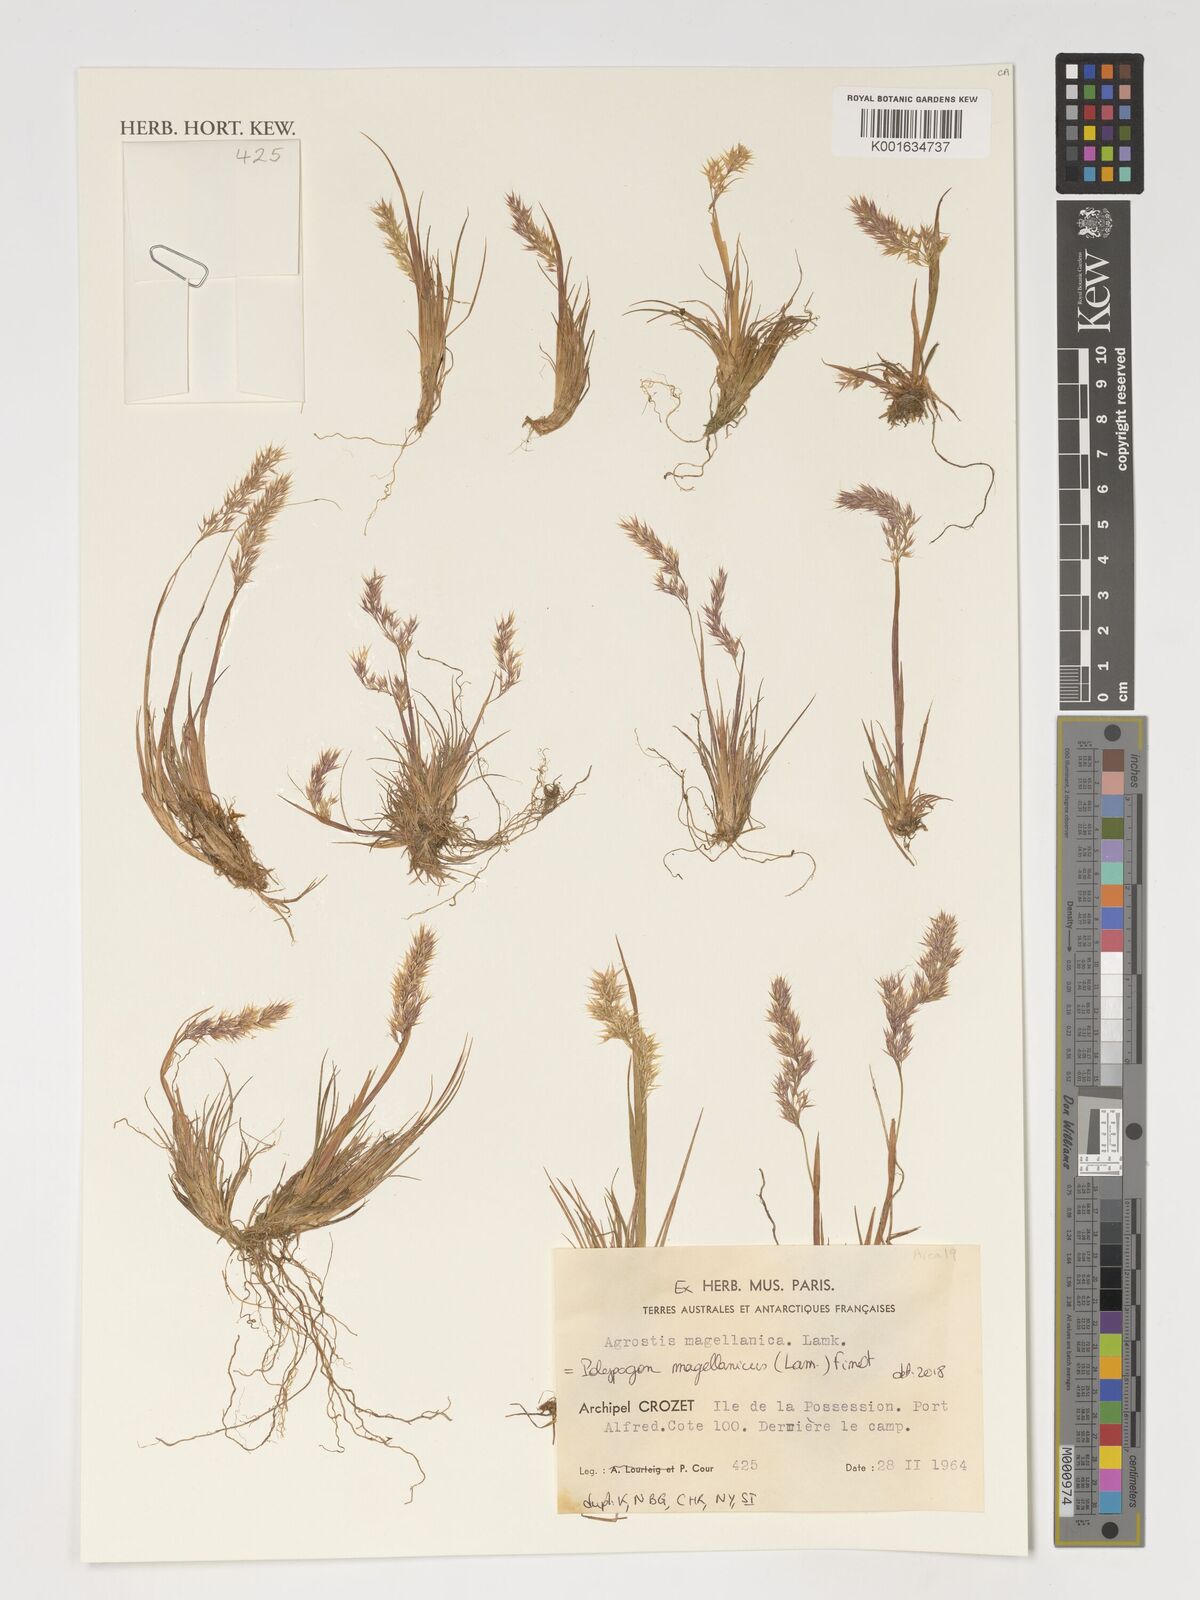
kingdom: Plantae
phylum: Tracheophyta
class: Liliopsida
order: Poales
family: Poaceae
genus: Polypogon
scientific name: Polypogon magellanicus
